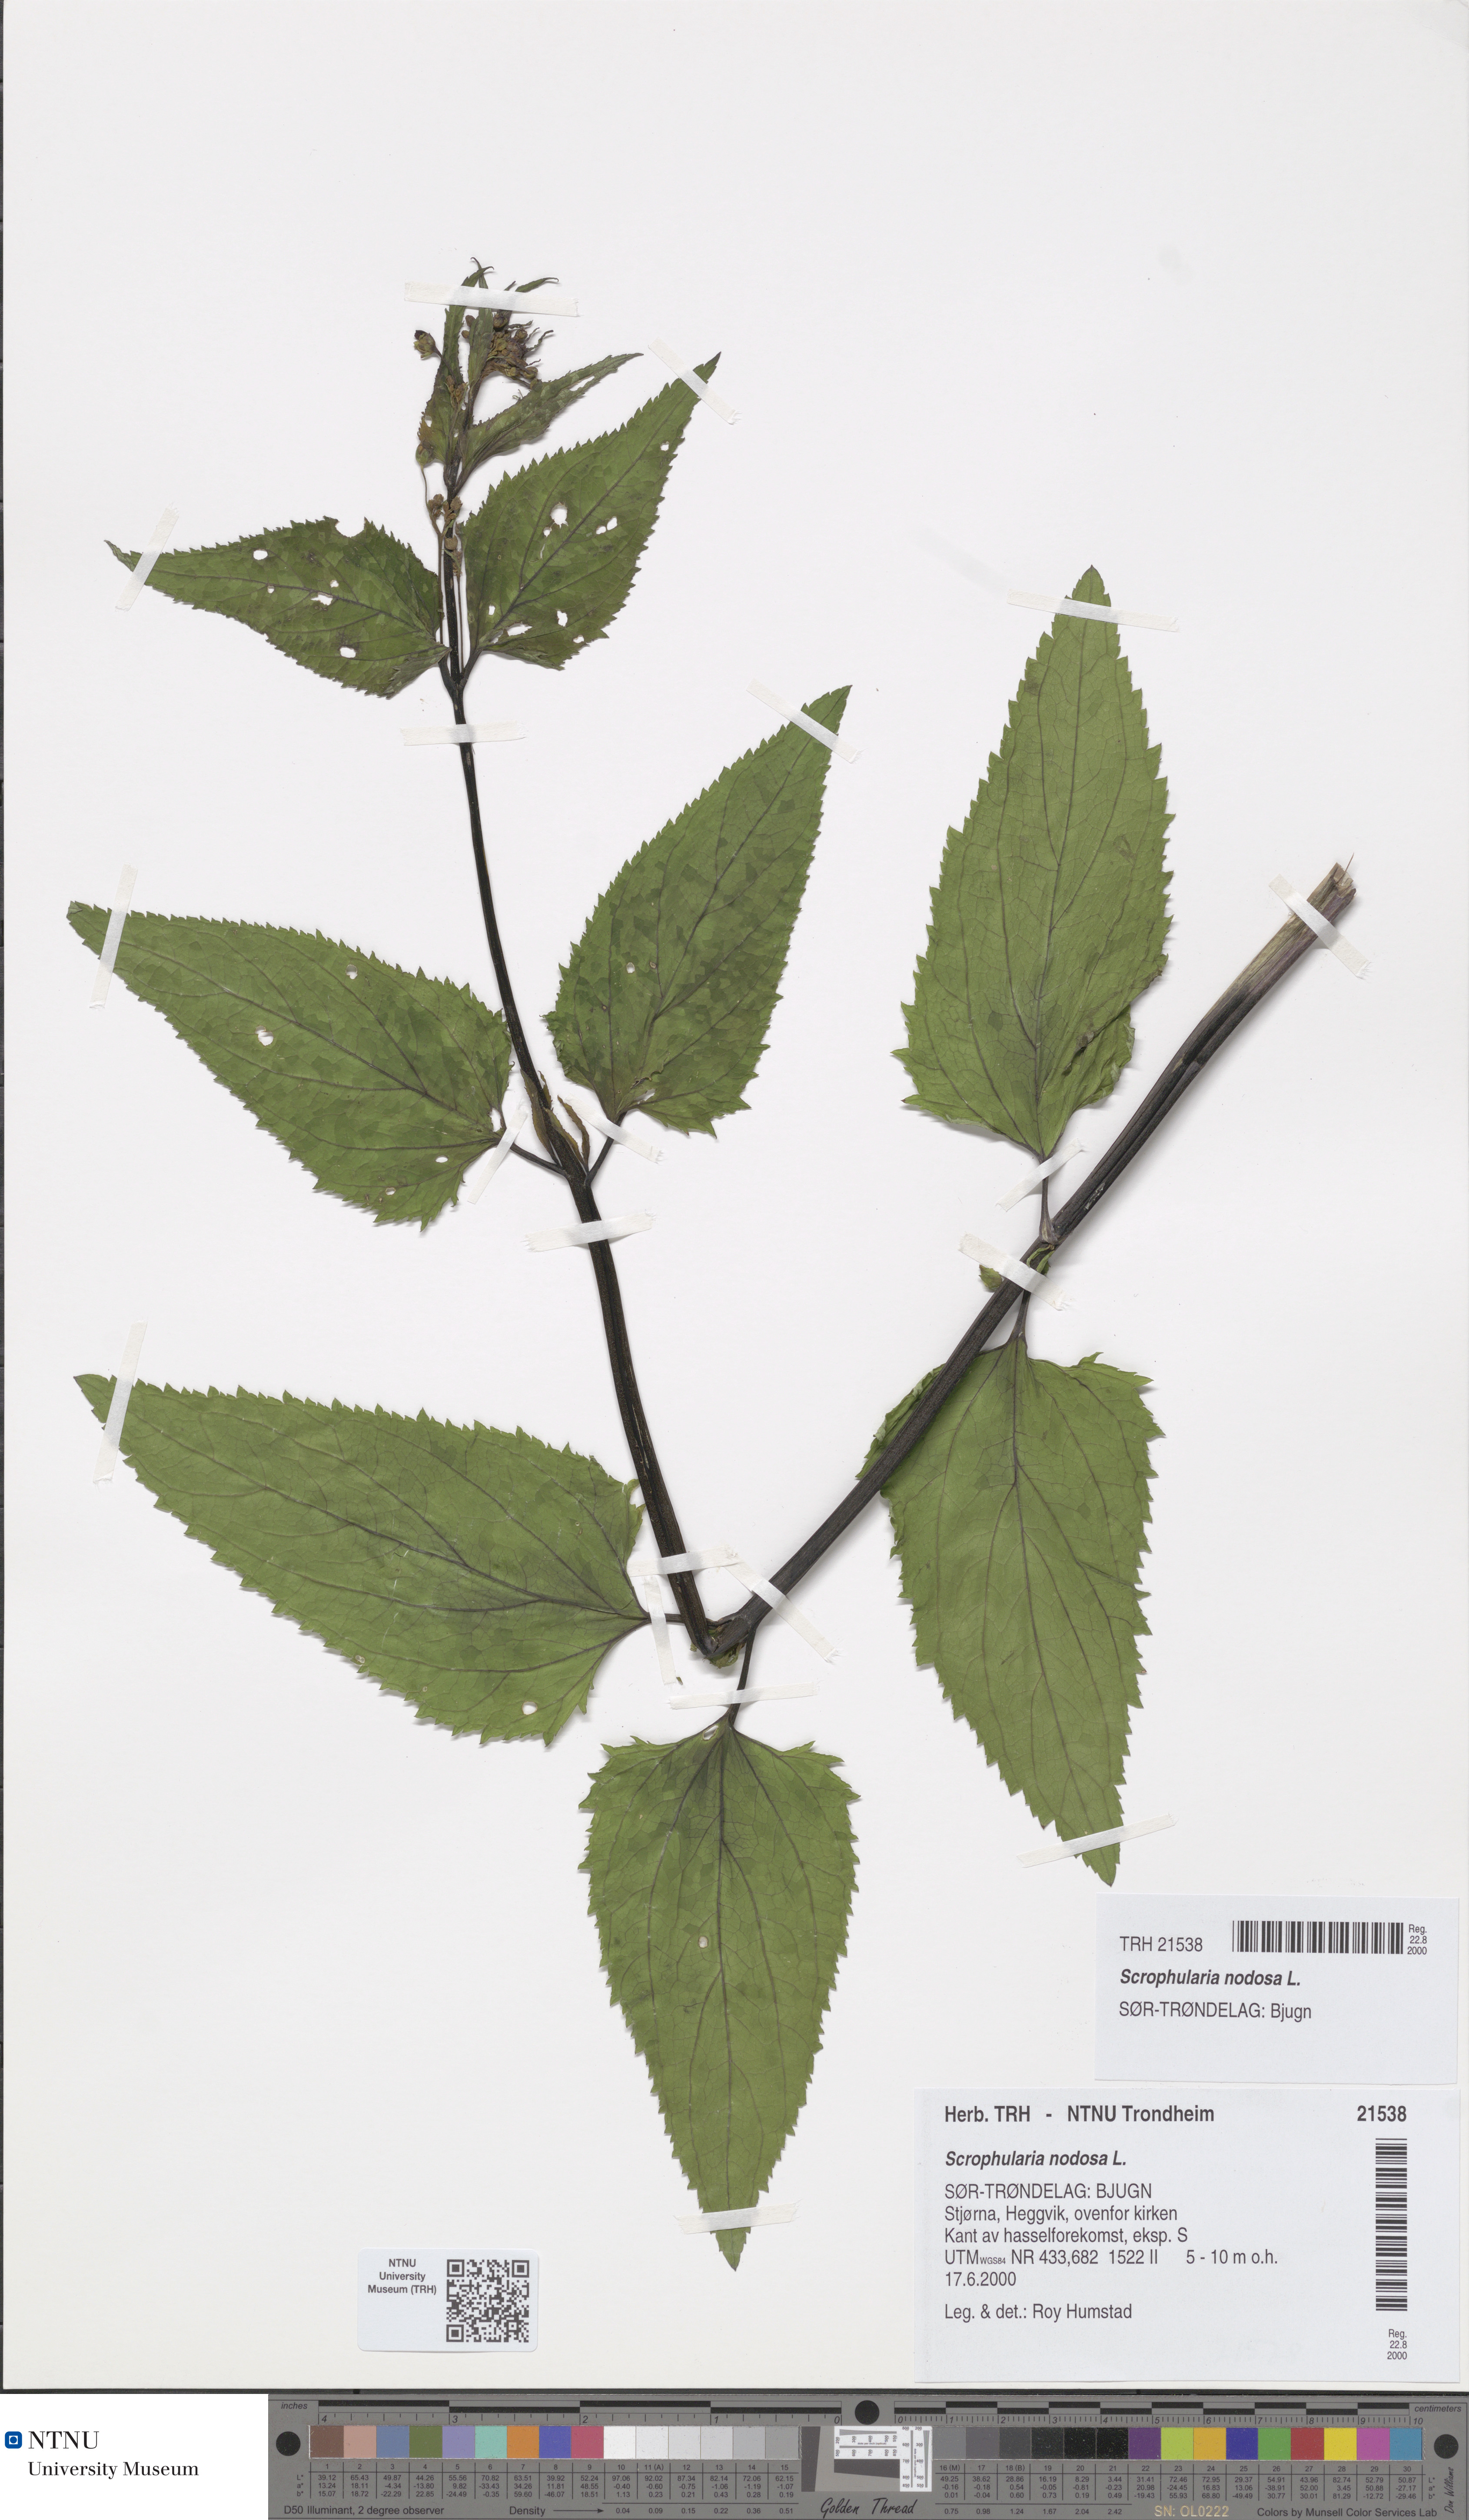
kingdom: Plantae
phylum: Tracheophyta
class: Magnoliopsida
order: Lamiales
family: Scrophulariaceae
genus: Scrophularia
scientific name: Scrophularia nodosa
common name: Common figwort
